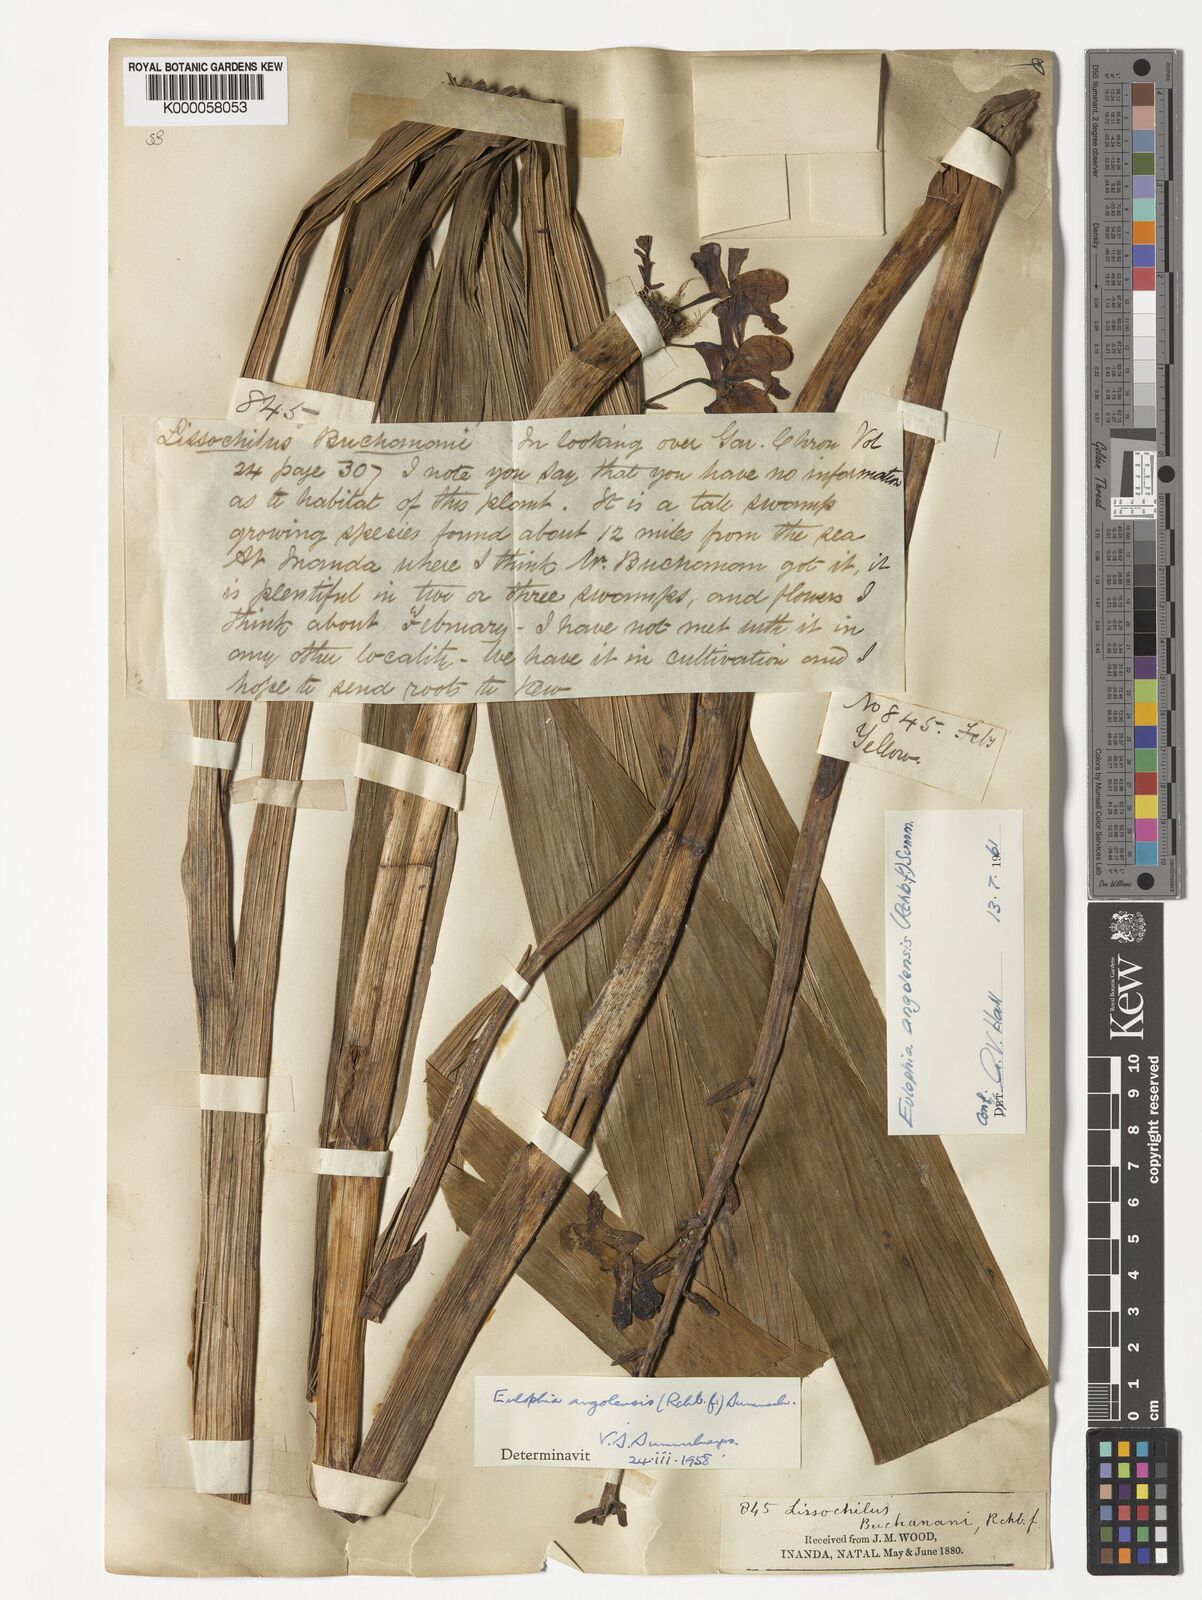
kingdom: Plantae
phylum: Tracheophyta
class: Liliopsida
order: Asparagales
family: Orchidaceae
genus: Eulophia
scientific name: Eulophia angolensis
